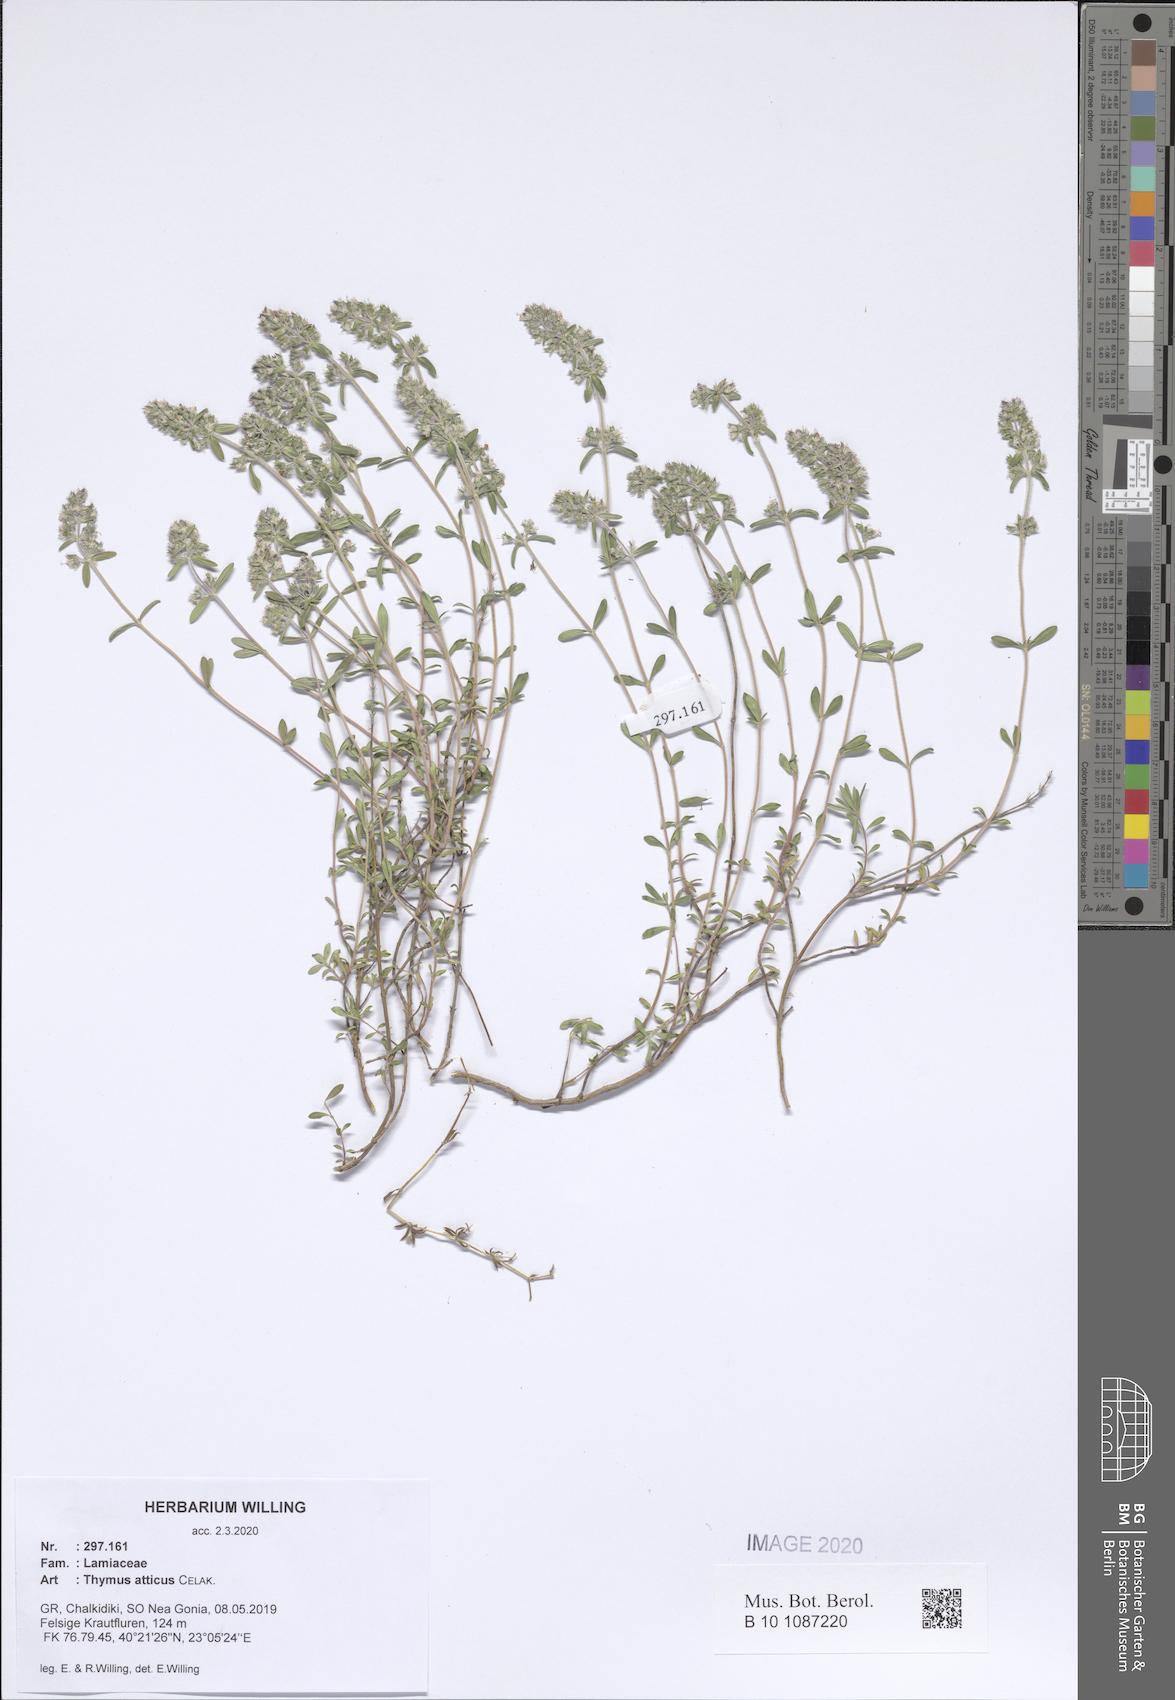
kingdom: Plantae
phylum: Tracheophyta
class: Magnoliopsida
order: Lamiales
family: Lamiaceae
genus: Thymus
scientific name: Thymus
